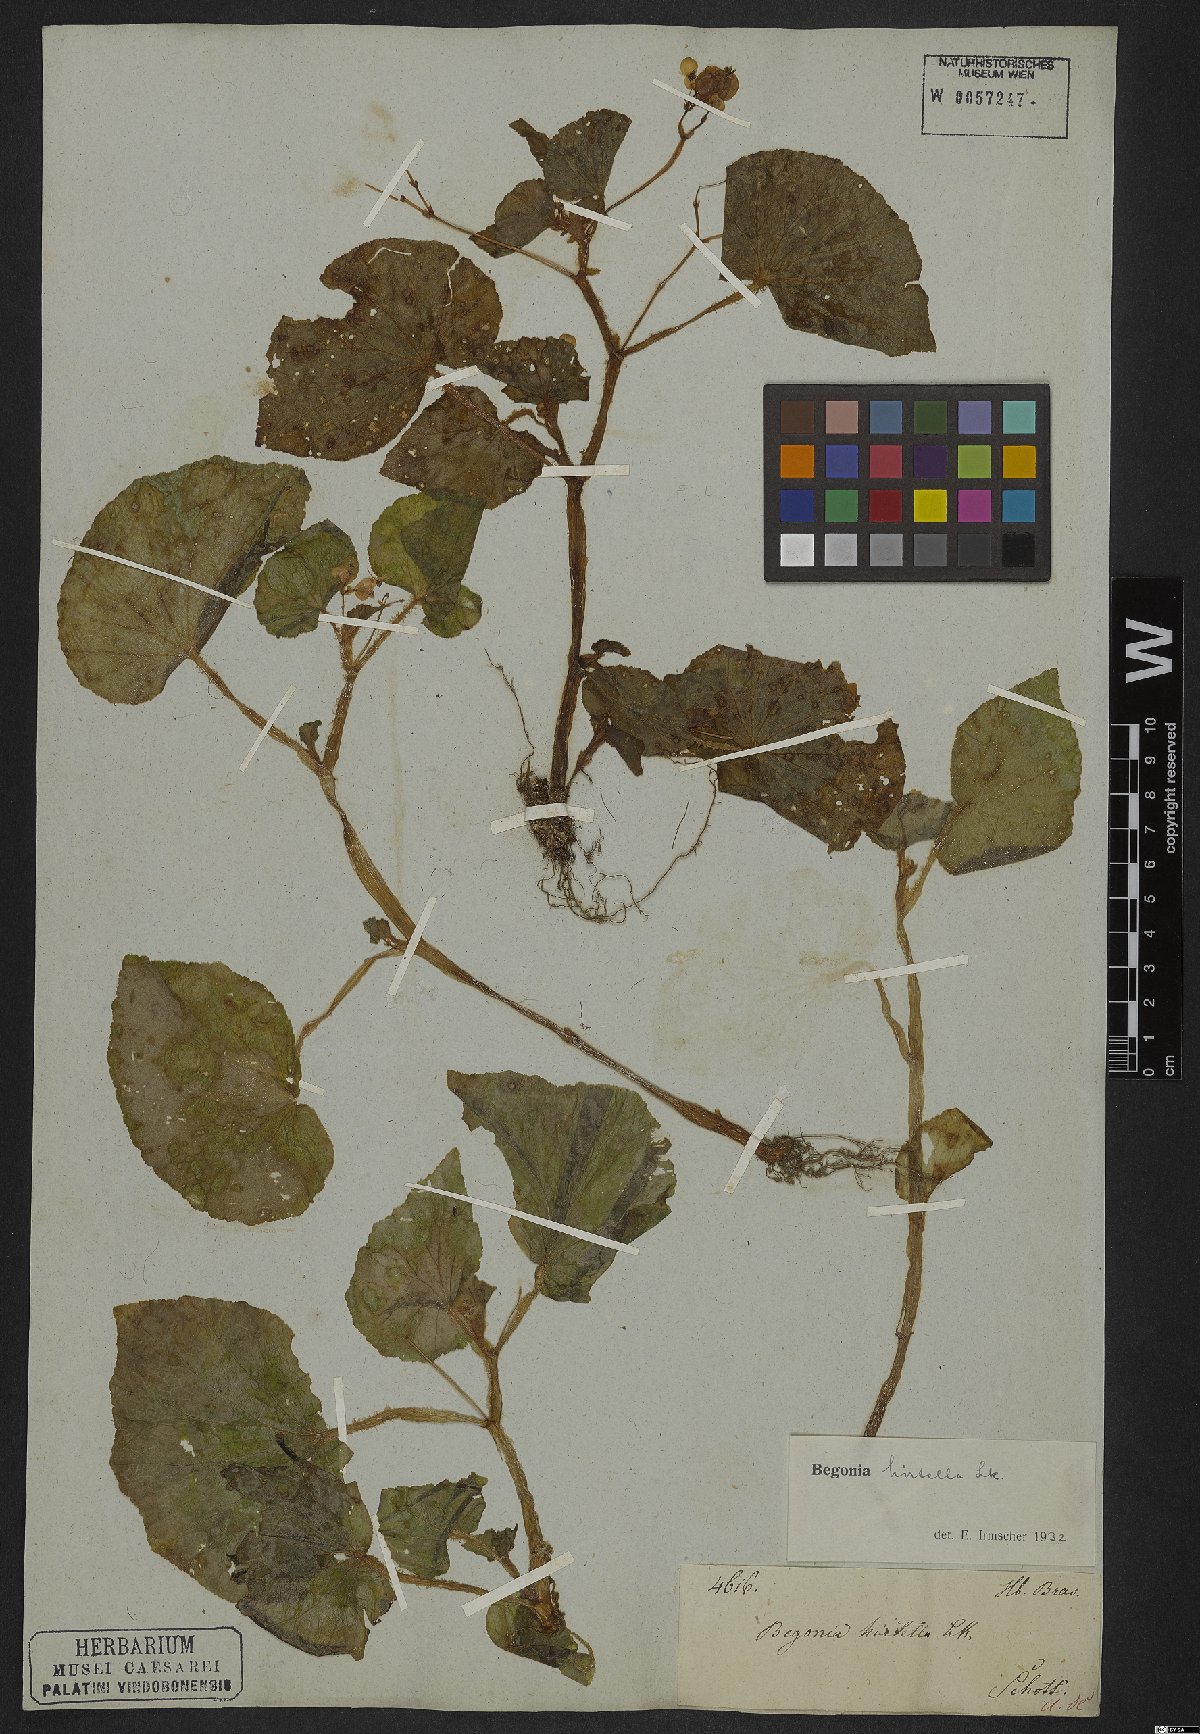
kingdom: Plantae
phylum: Tracheophyta
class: Magnoliopsida
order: Cucurbitales
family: Begoniaceae
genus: Begonia
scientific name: Begonia hirtella
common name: Brazilian begonia
